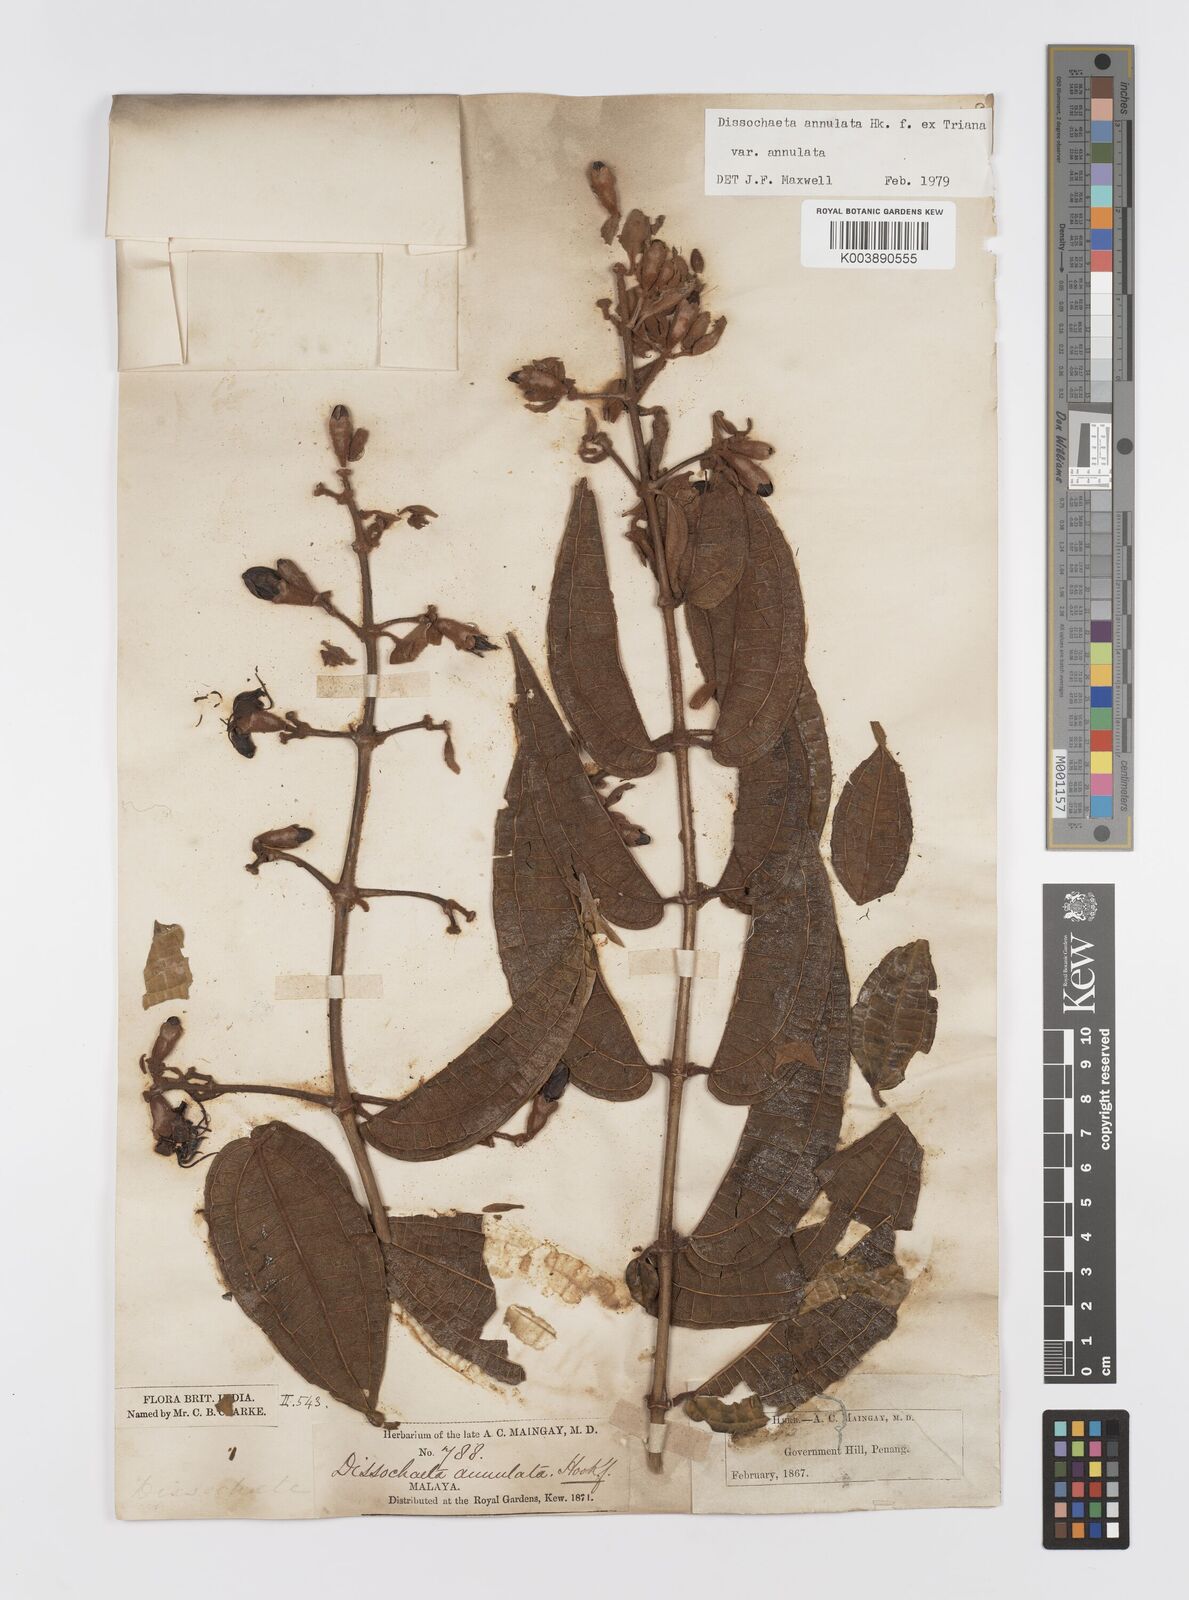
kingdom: Plantae
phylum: Tracheophyta
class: Magnoliopsida
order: Myrtales
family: Melastomataceae
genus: Dissochaeta
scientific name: Dissochaeta annulata
